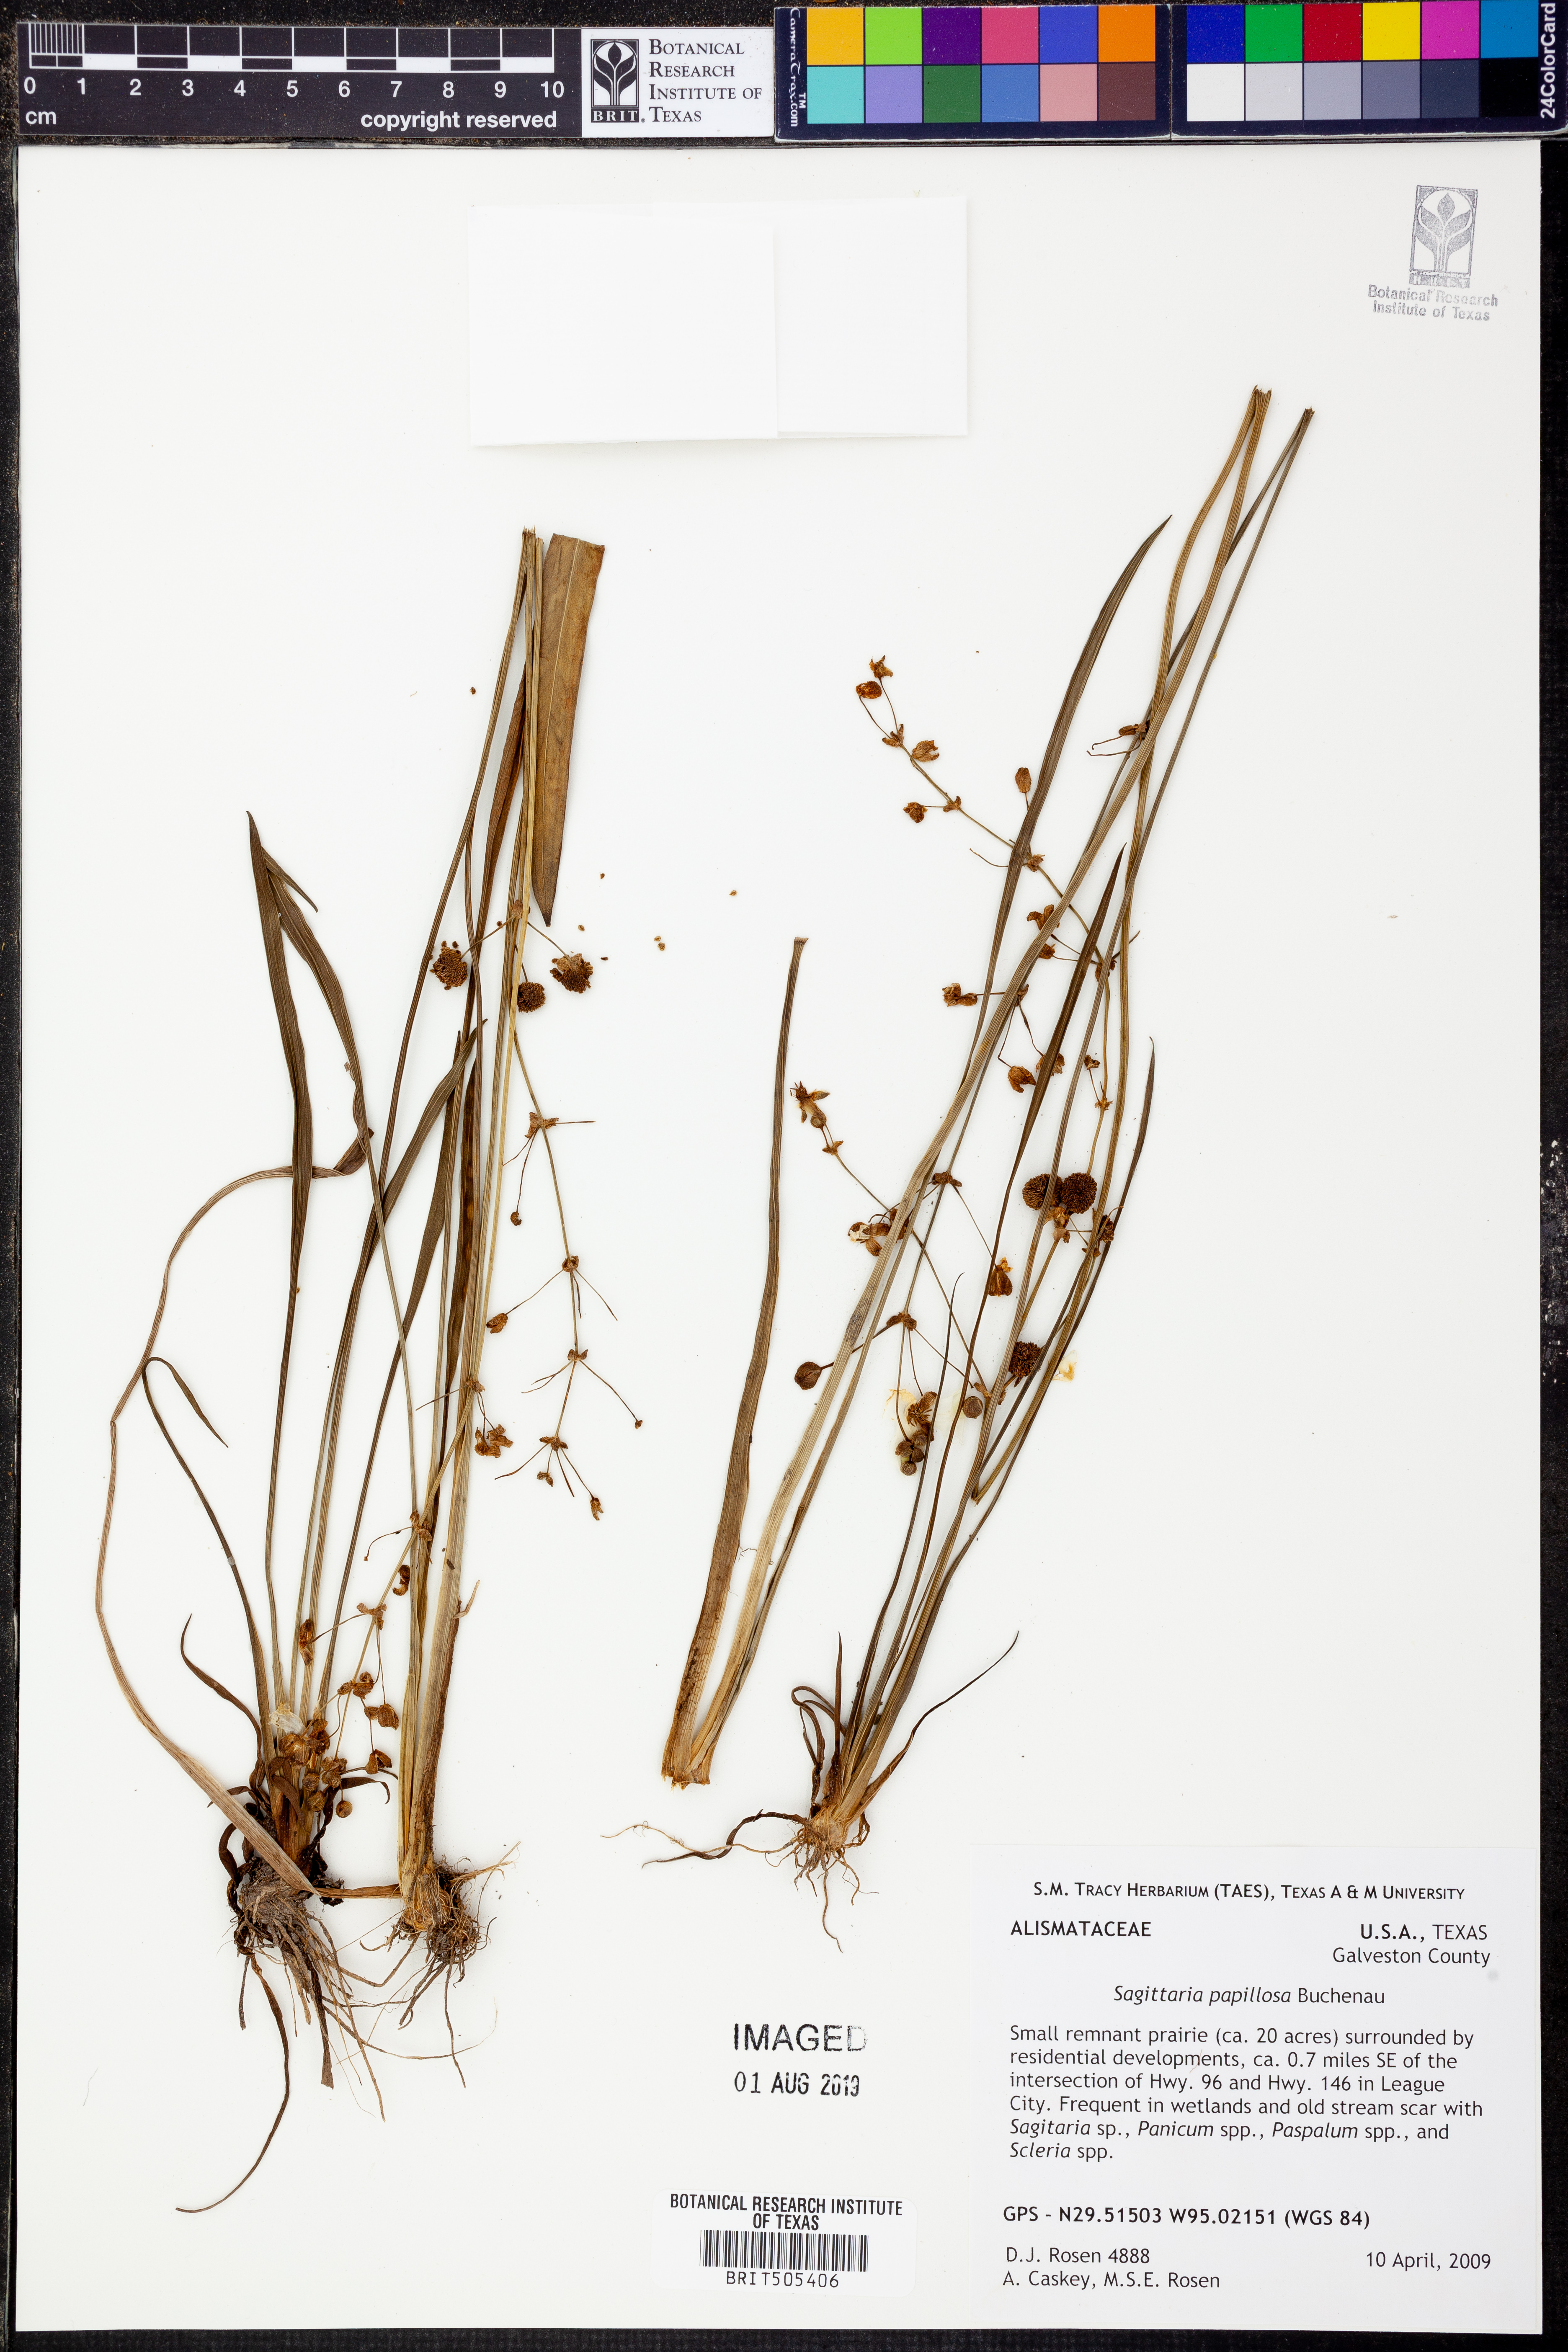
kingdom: Plantae
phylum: Tracheophyta
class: Liliopsida
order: Alismatales
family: Alismataceae
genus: Sagittaria
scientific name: Sagittaria papillosa
